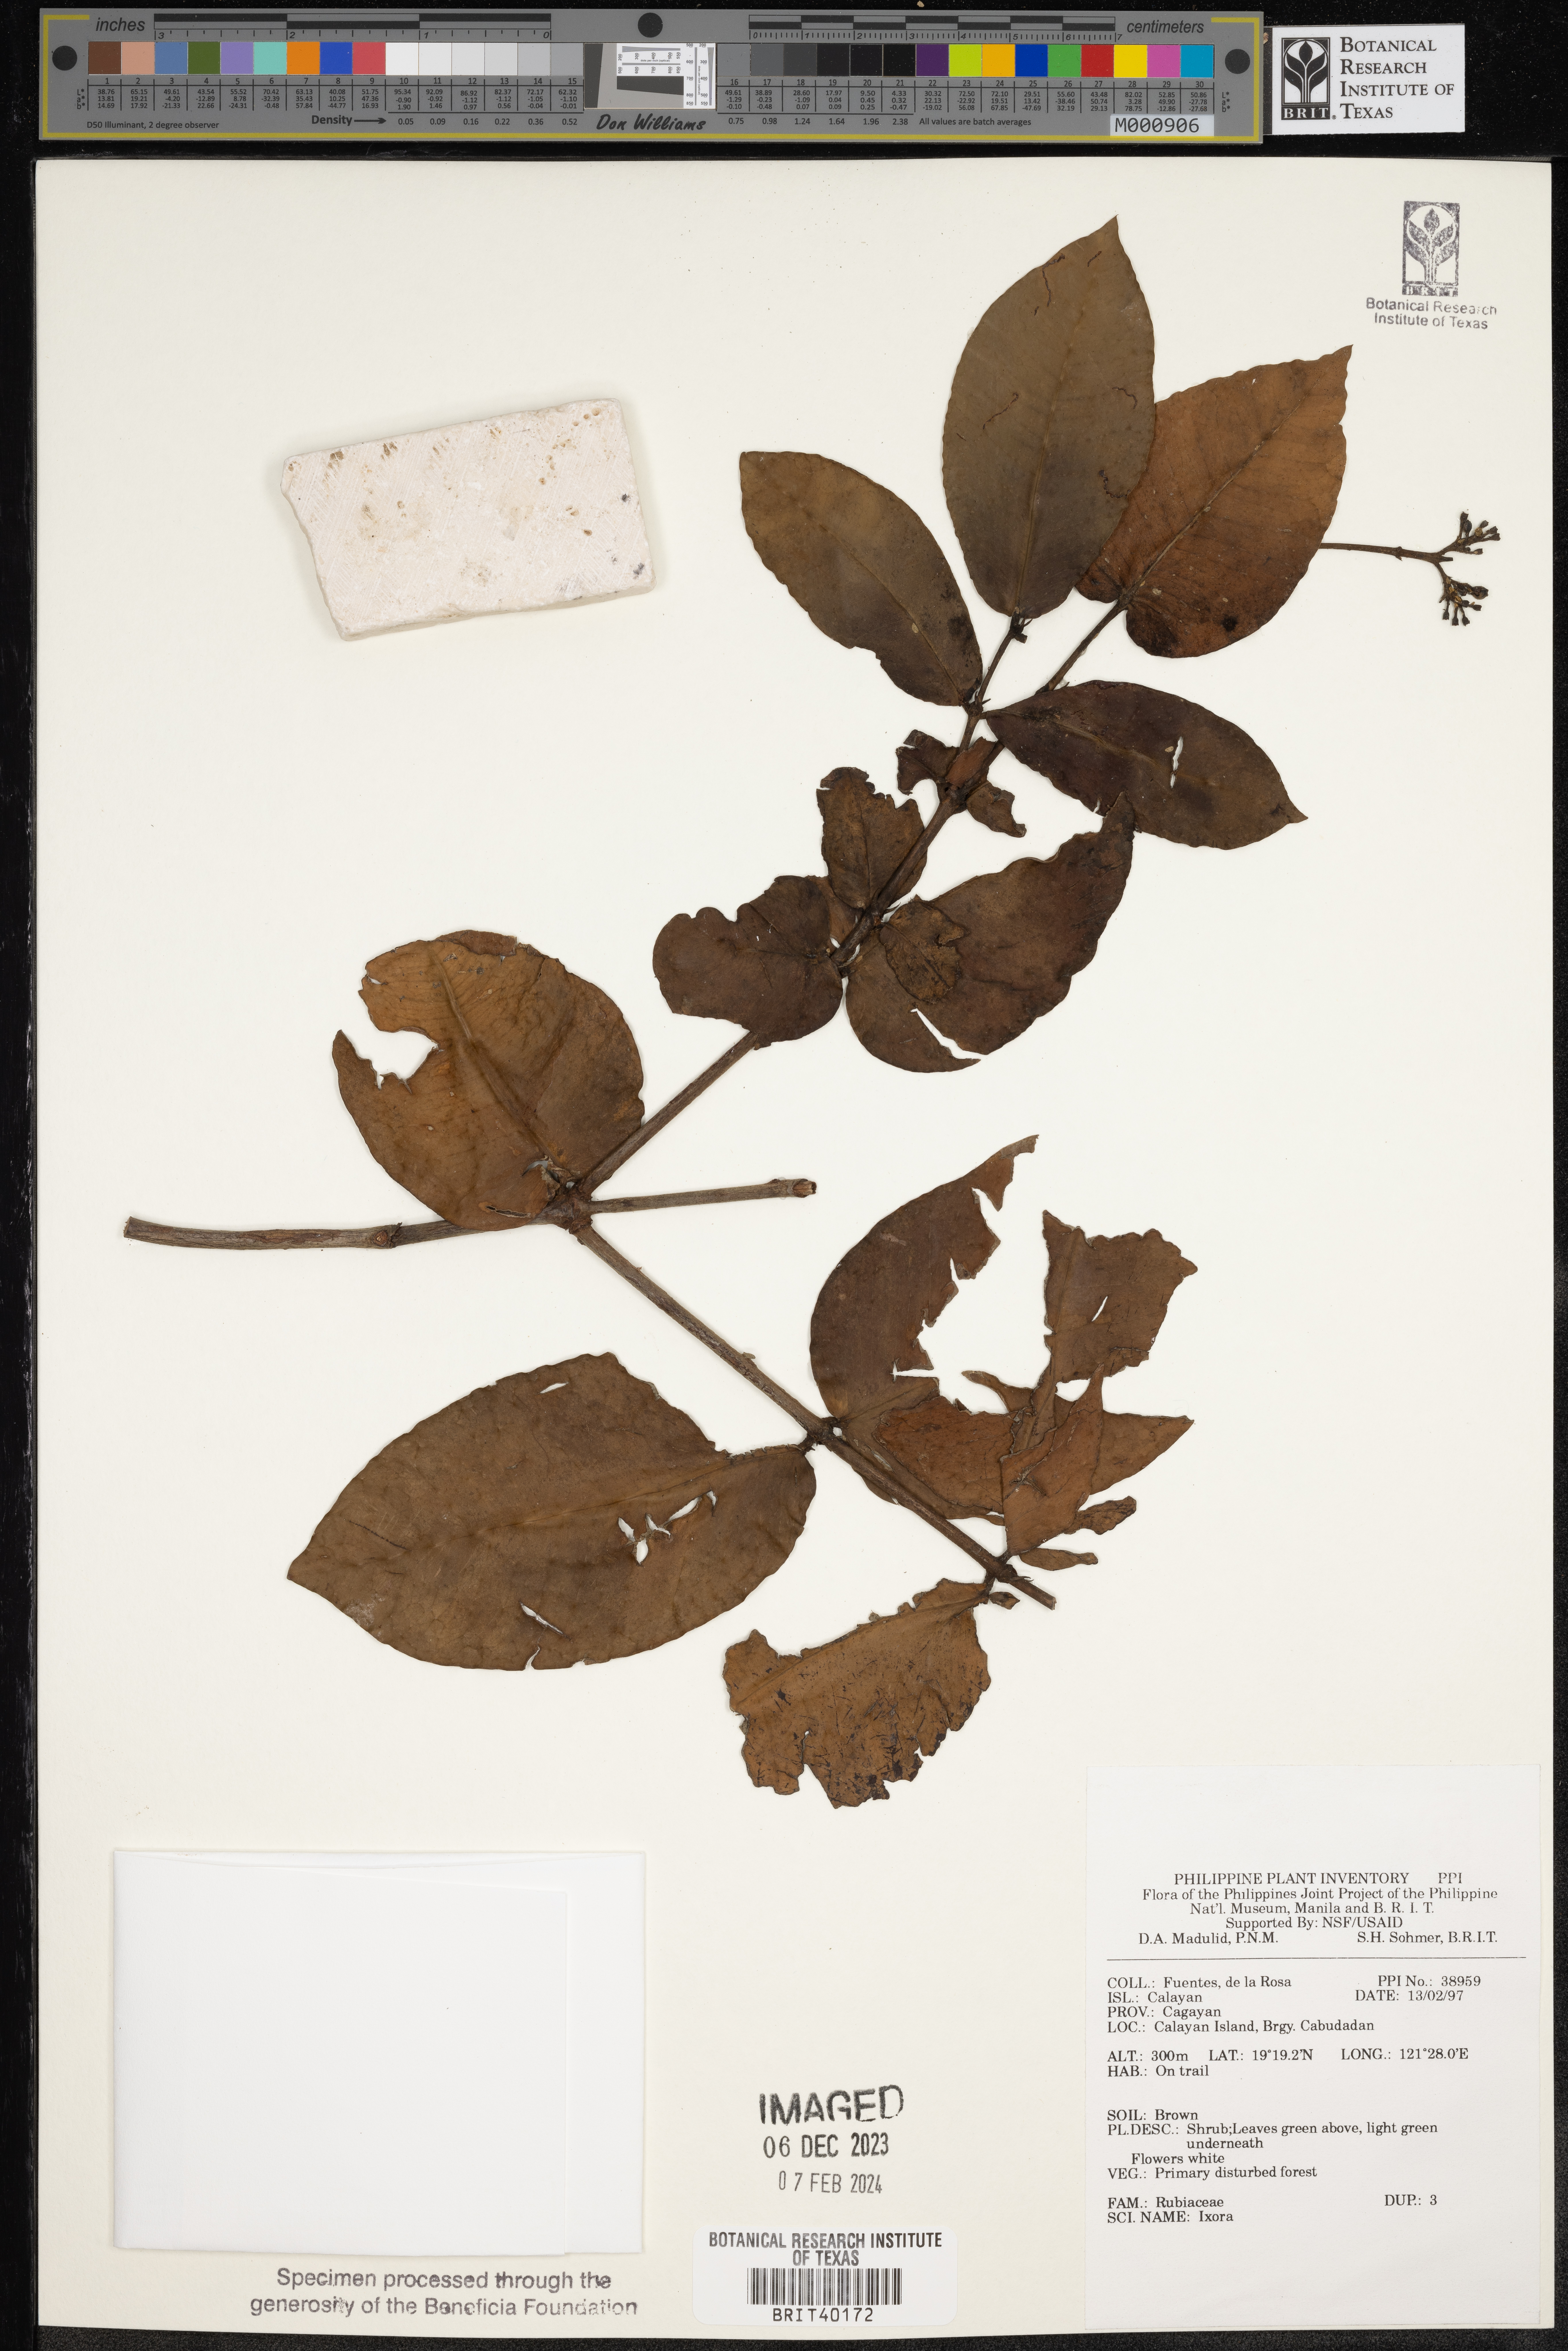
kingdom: Plantae
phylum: Tracheophyta
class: Magnoliopsida
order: Gentianales
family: Rubiaceae
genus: Ixora
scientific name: Ixora
